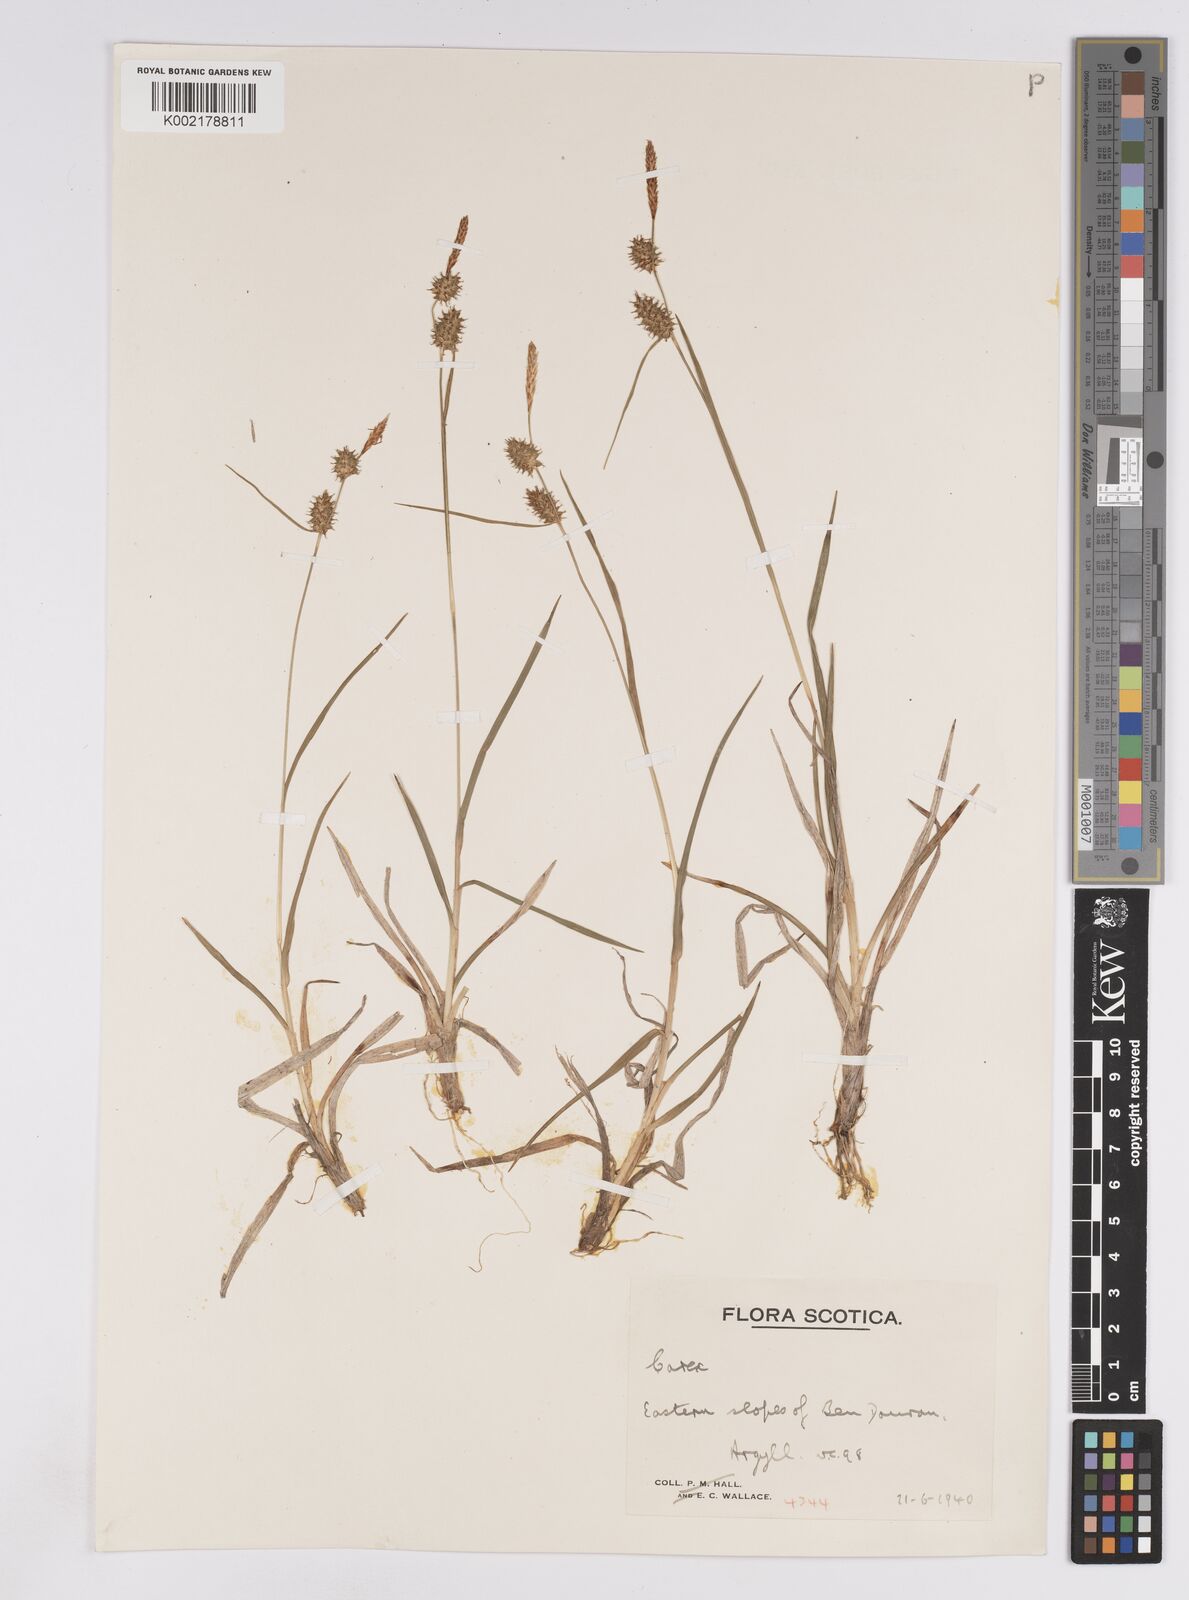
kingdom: Plantae
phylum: Tracheophyta
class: Liliopsida
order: Poales
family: Cyperaceae
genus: Carex
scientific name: Carex lepidocarpa
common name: Long-stalked yellow-sedge
